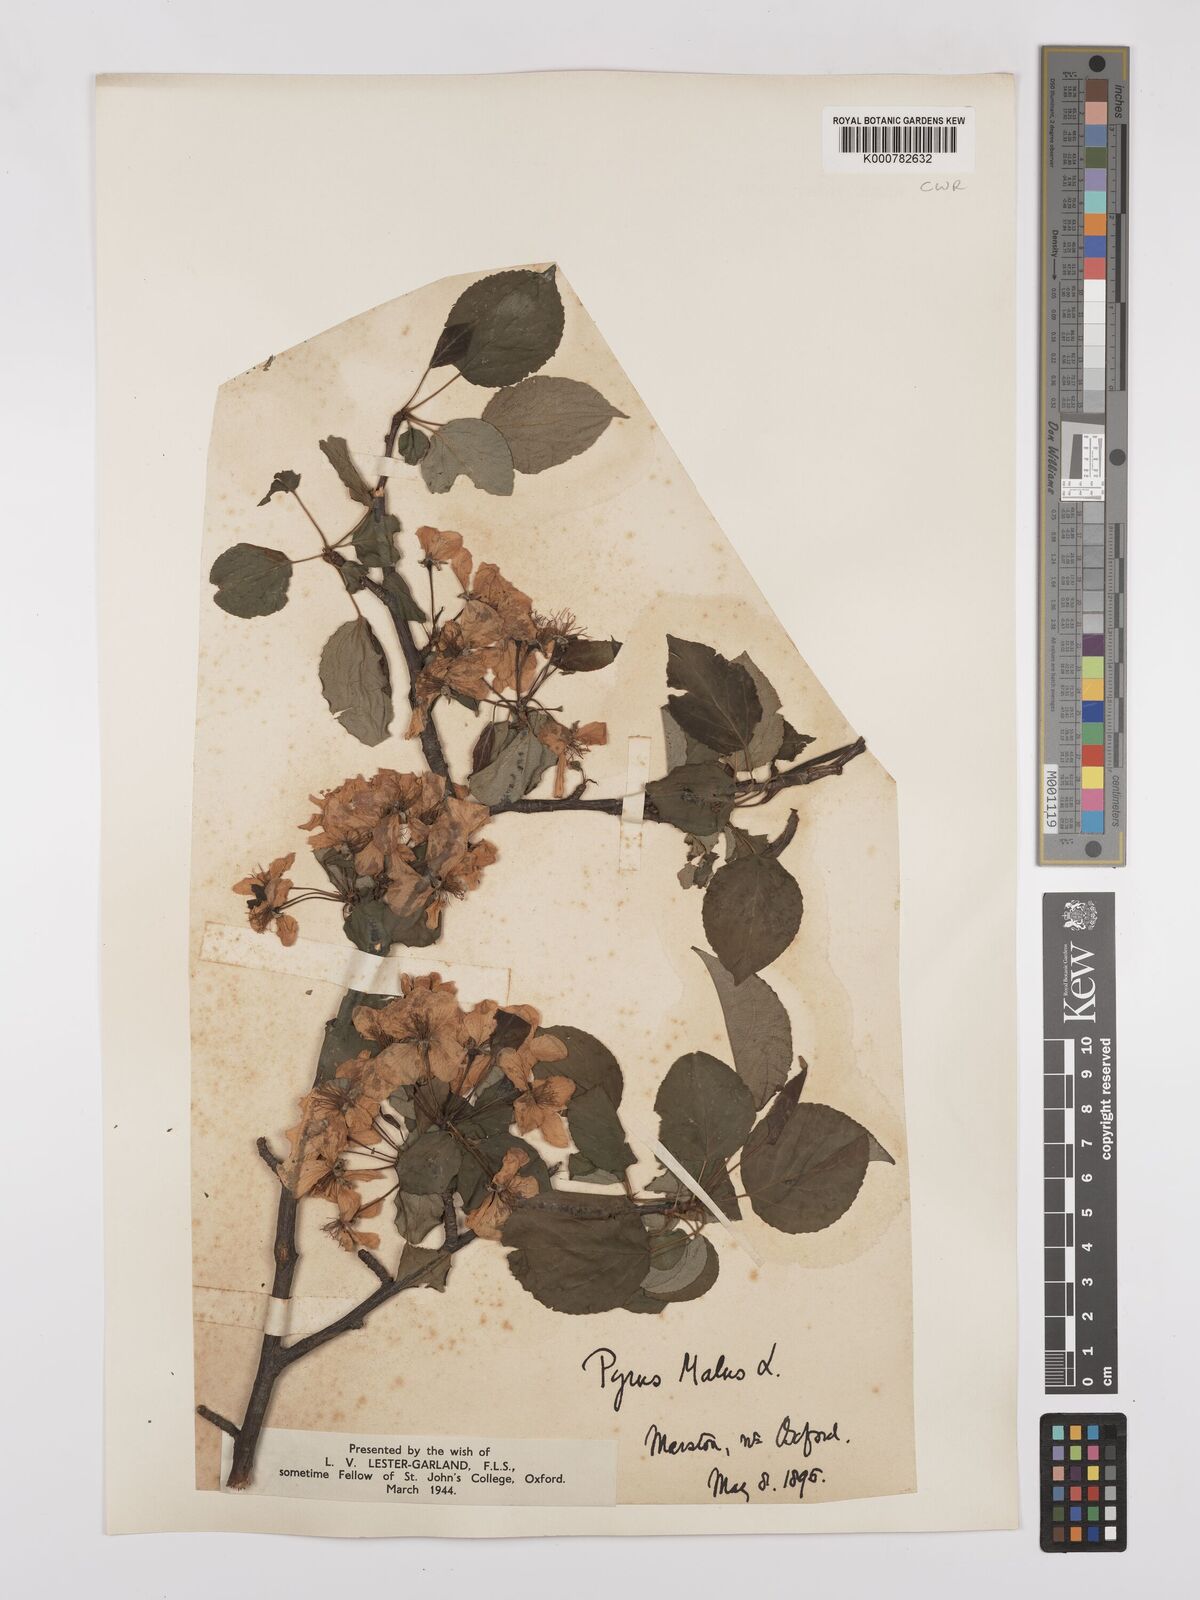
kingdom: Plantae
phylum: Tracheophyta
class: Magnoliopsida
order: Rosales
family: Rosaceae
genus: Malus
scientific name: Malus domestica
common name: Apple
